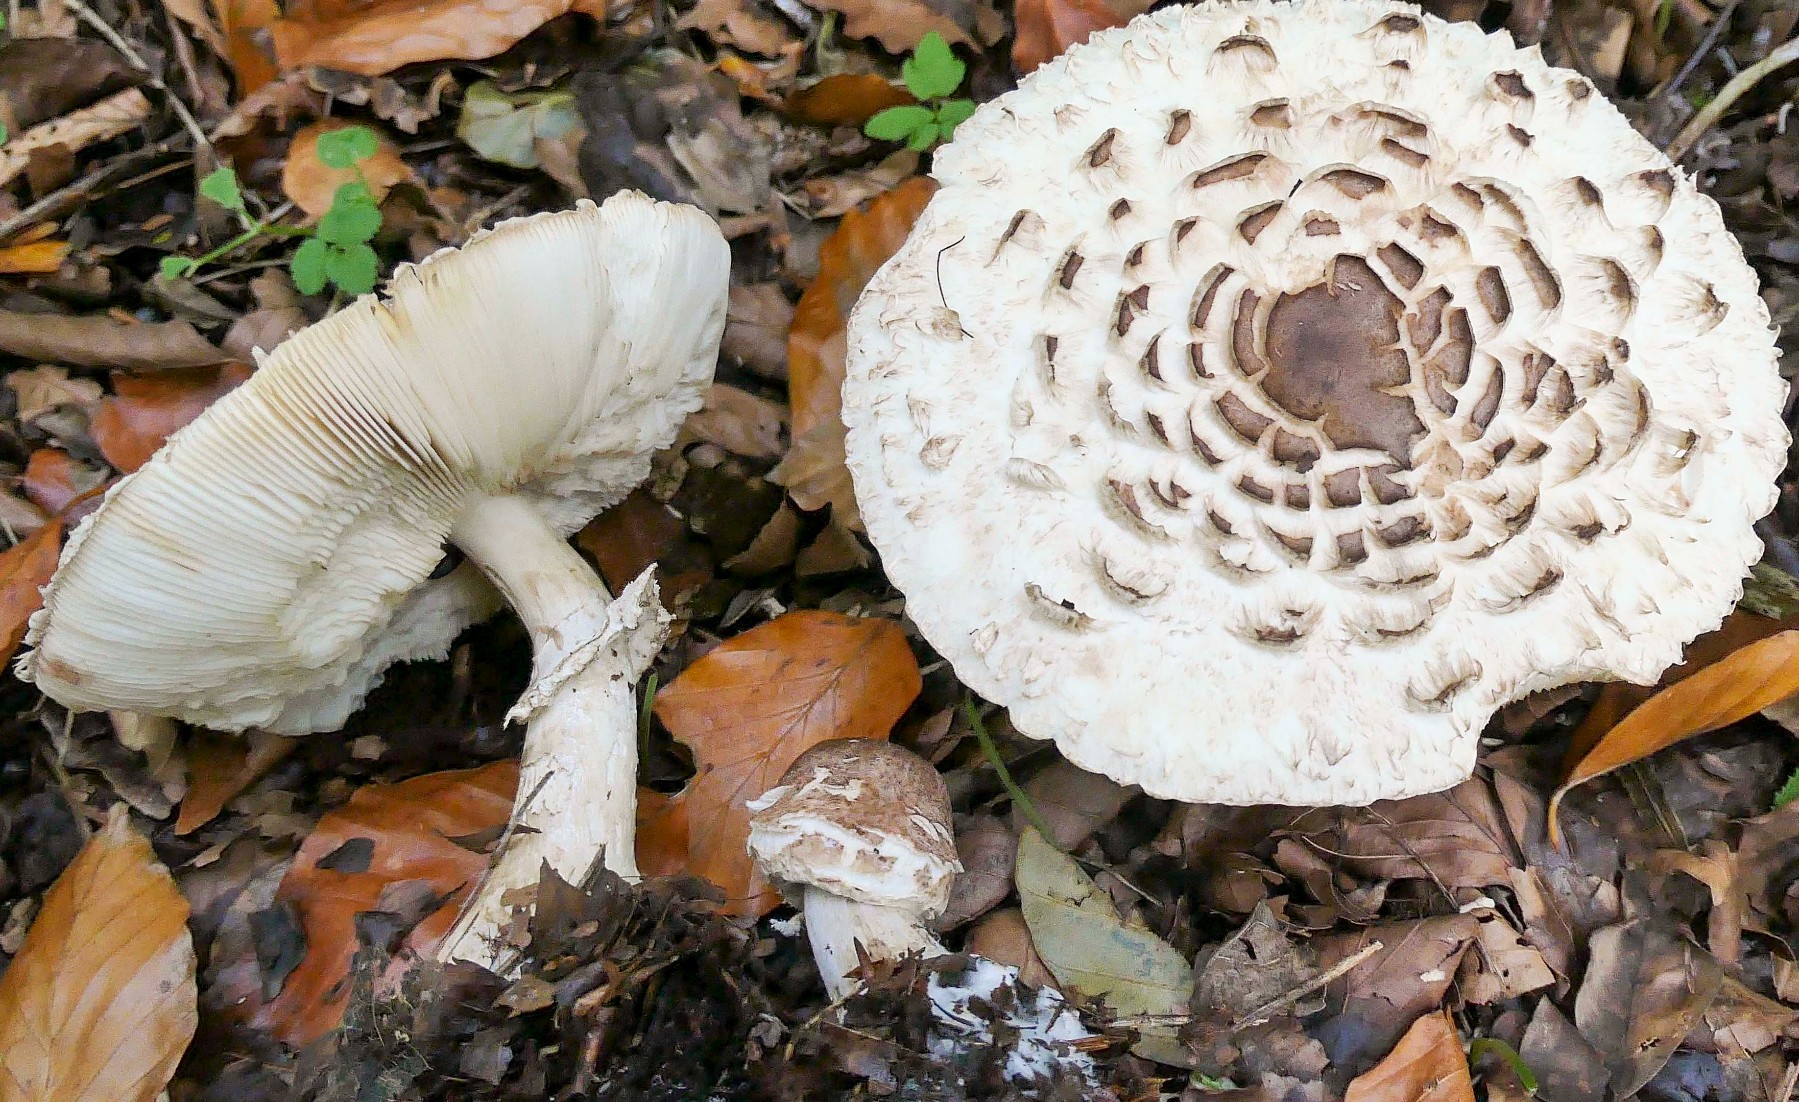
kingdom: Fungi
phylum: Basidiomycota
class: Agaricomycetes
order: Agaricales
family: Agaricaceae
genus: Chlorophyllum
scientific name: Chlorophyllum brunneum
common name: giftig rabarberhat
